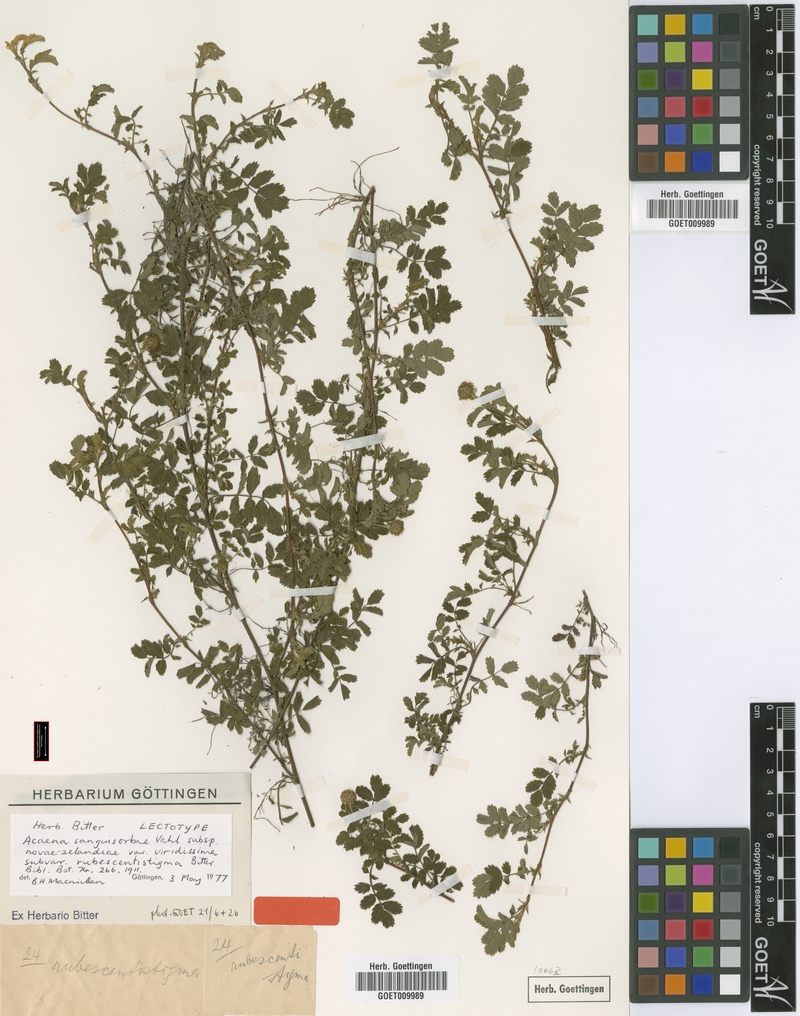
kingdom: Plantae
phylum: Tracheophyta
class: Magnoliopsida
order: Rosales
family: Rosaceae
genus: Acaena
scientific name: Acaena anserinifolia
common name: Bronze pirri-pirri-bur
